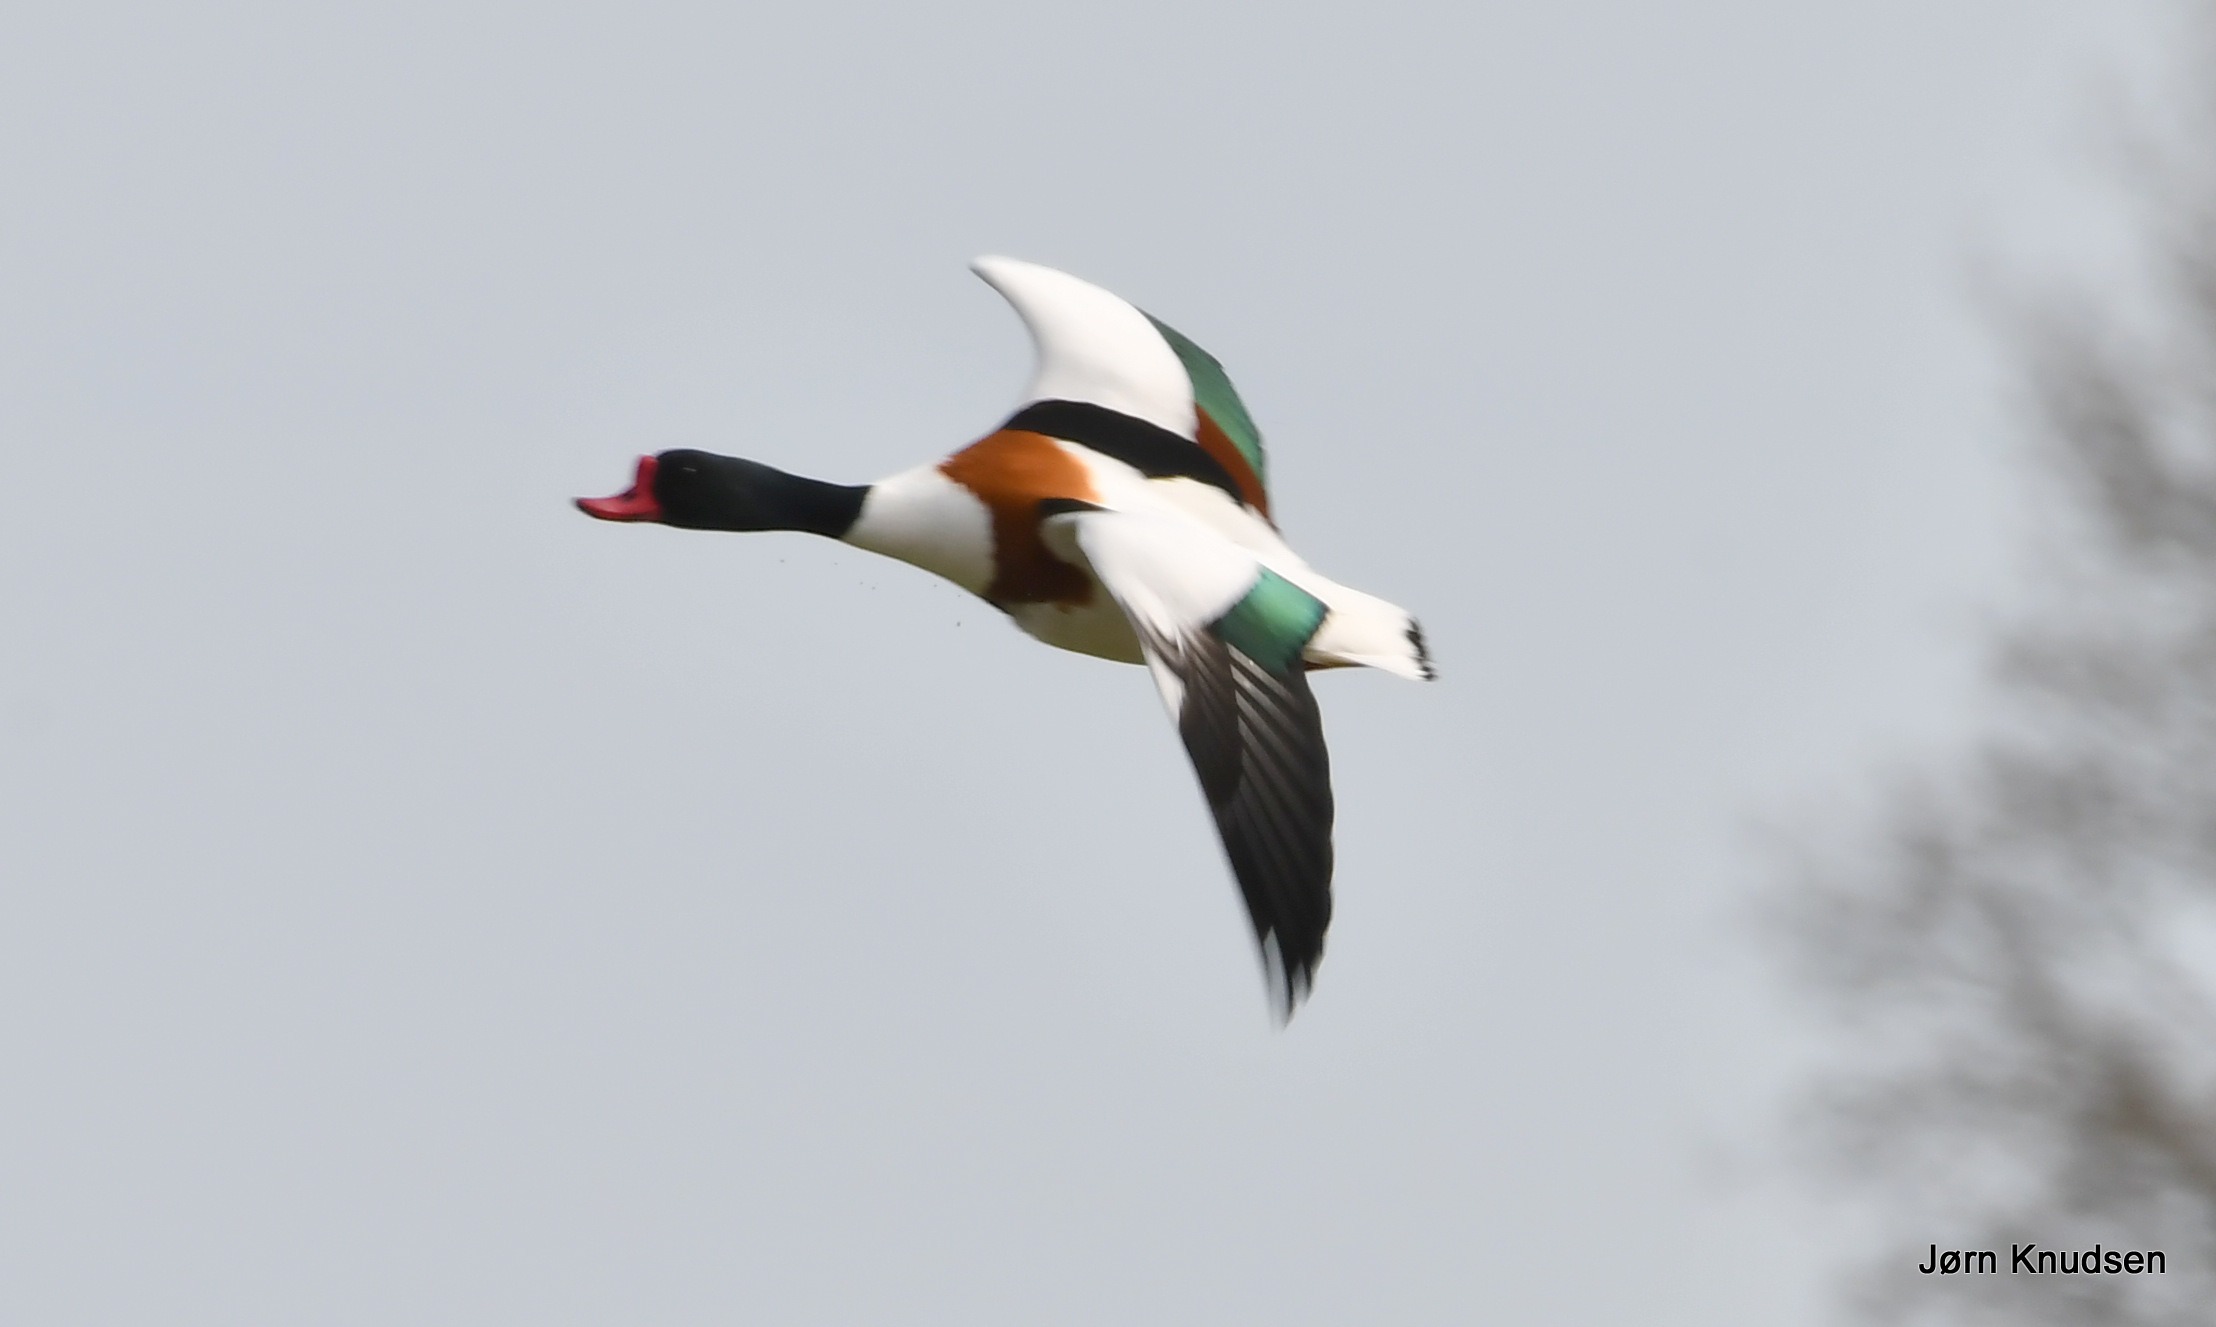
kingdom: Animalia
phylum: Chordata
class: Aves
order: Anseriformes
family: Anatidae
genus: Tadorna
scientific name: Tadorna tadorna
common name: Gravand
